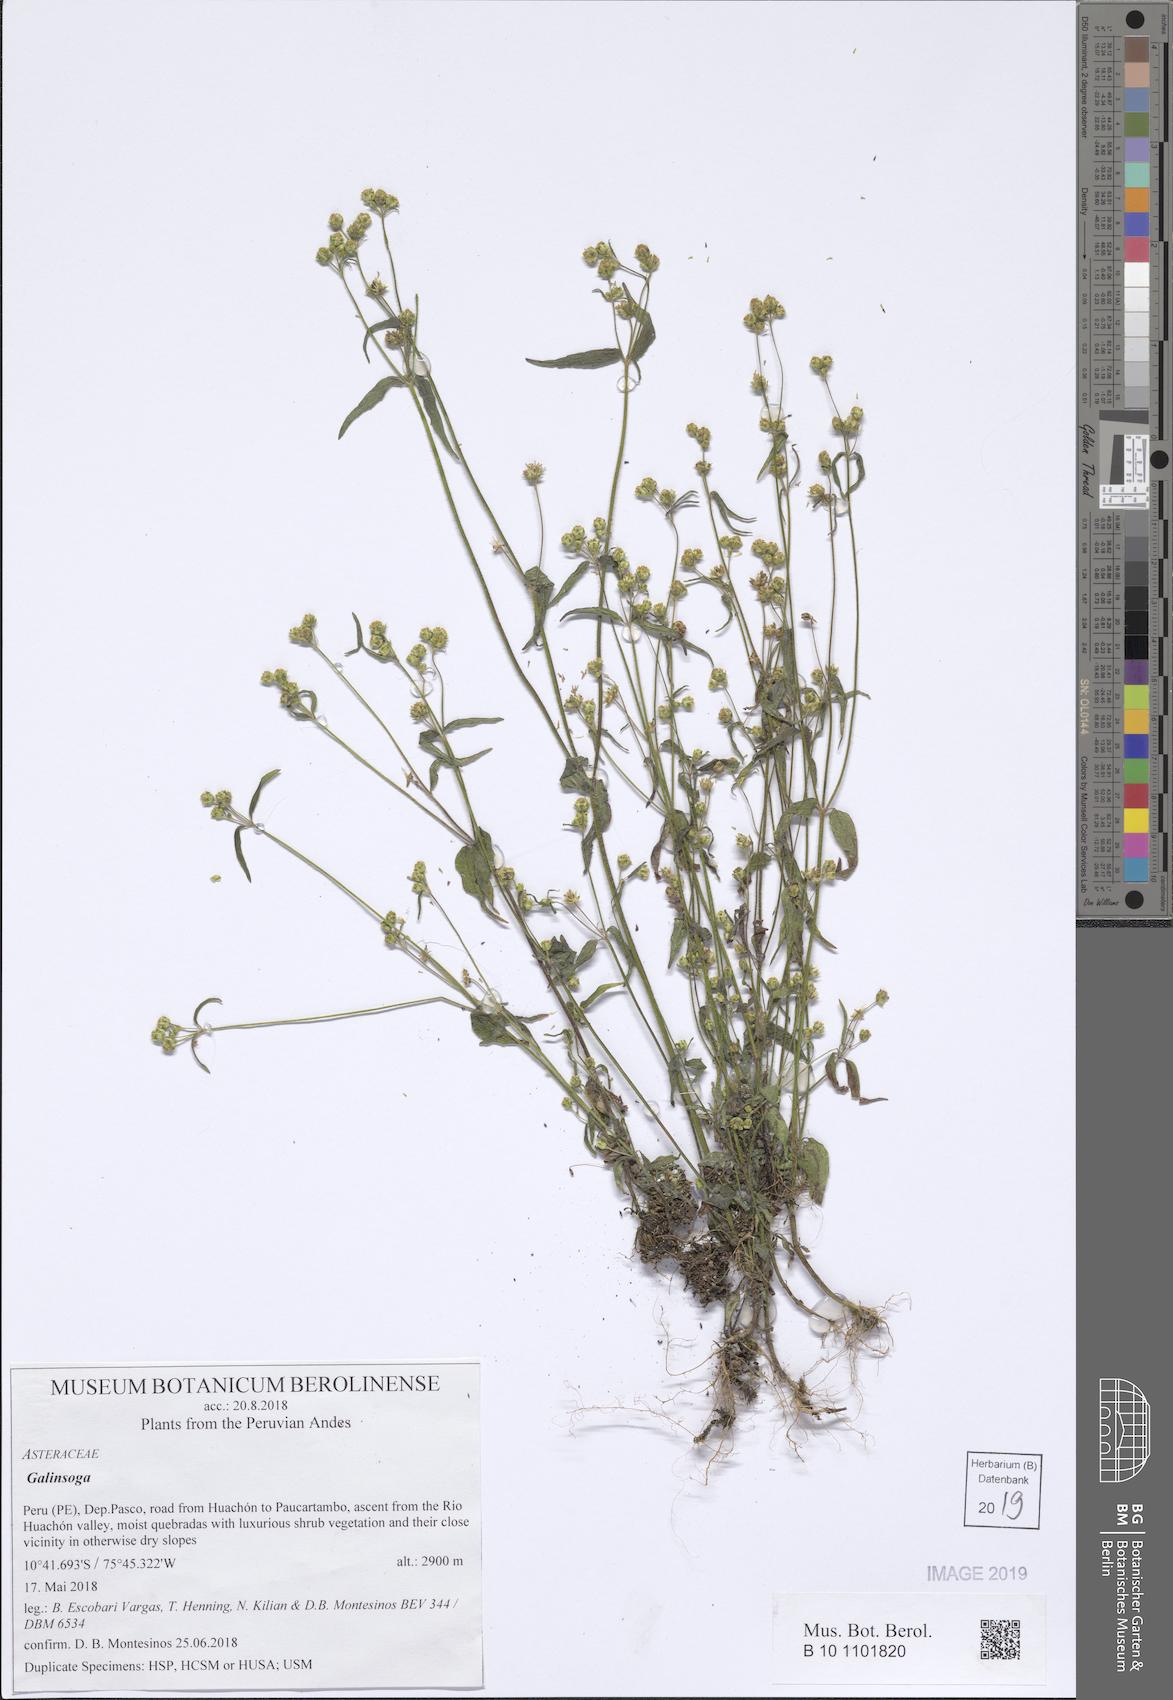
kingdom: Plantae
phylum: Tracheophyta
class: Magnoliopsida
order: Asterales
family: Asteraceae
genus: Galinsoga
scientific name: Galinsoga
